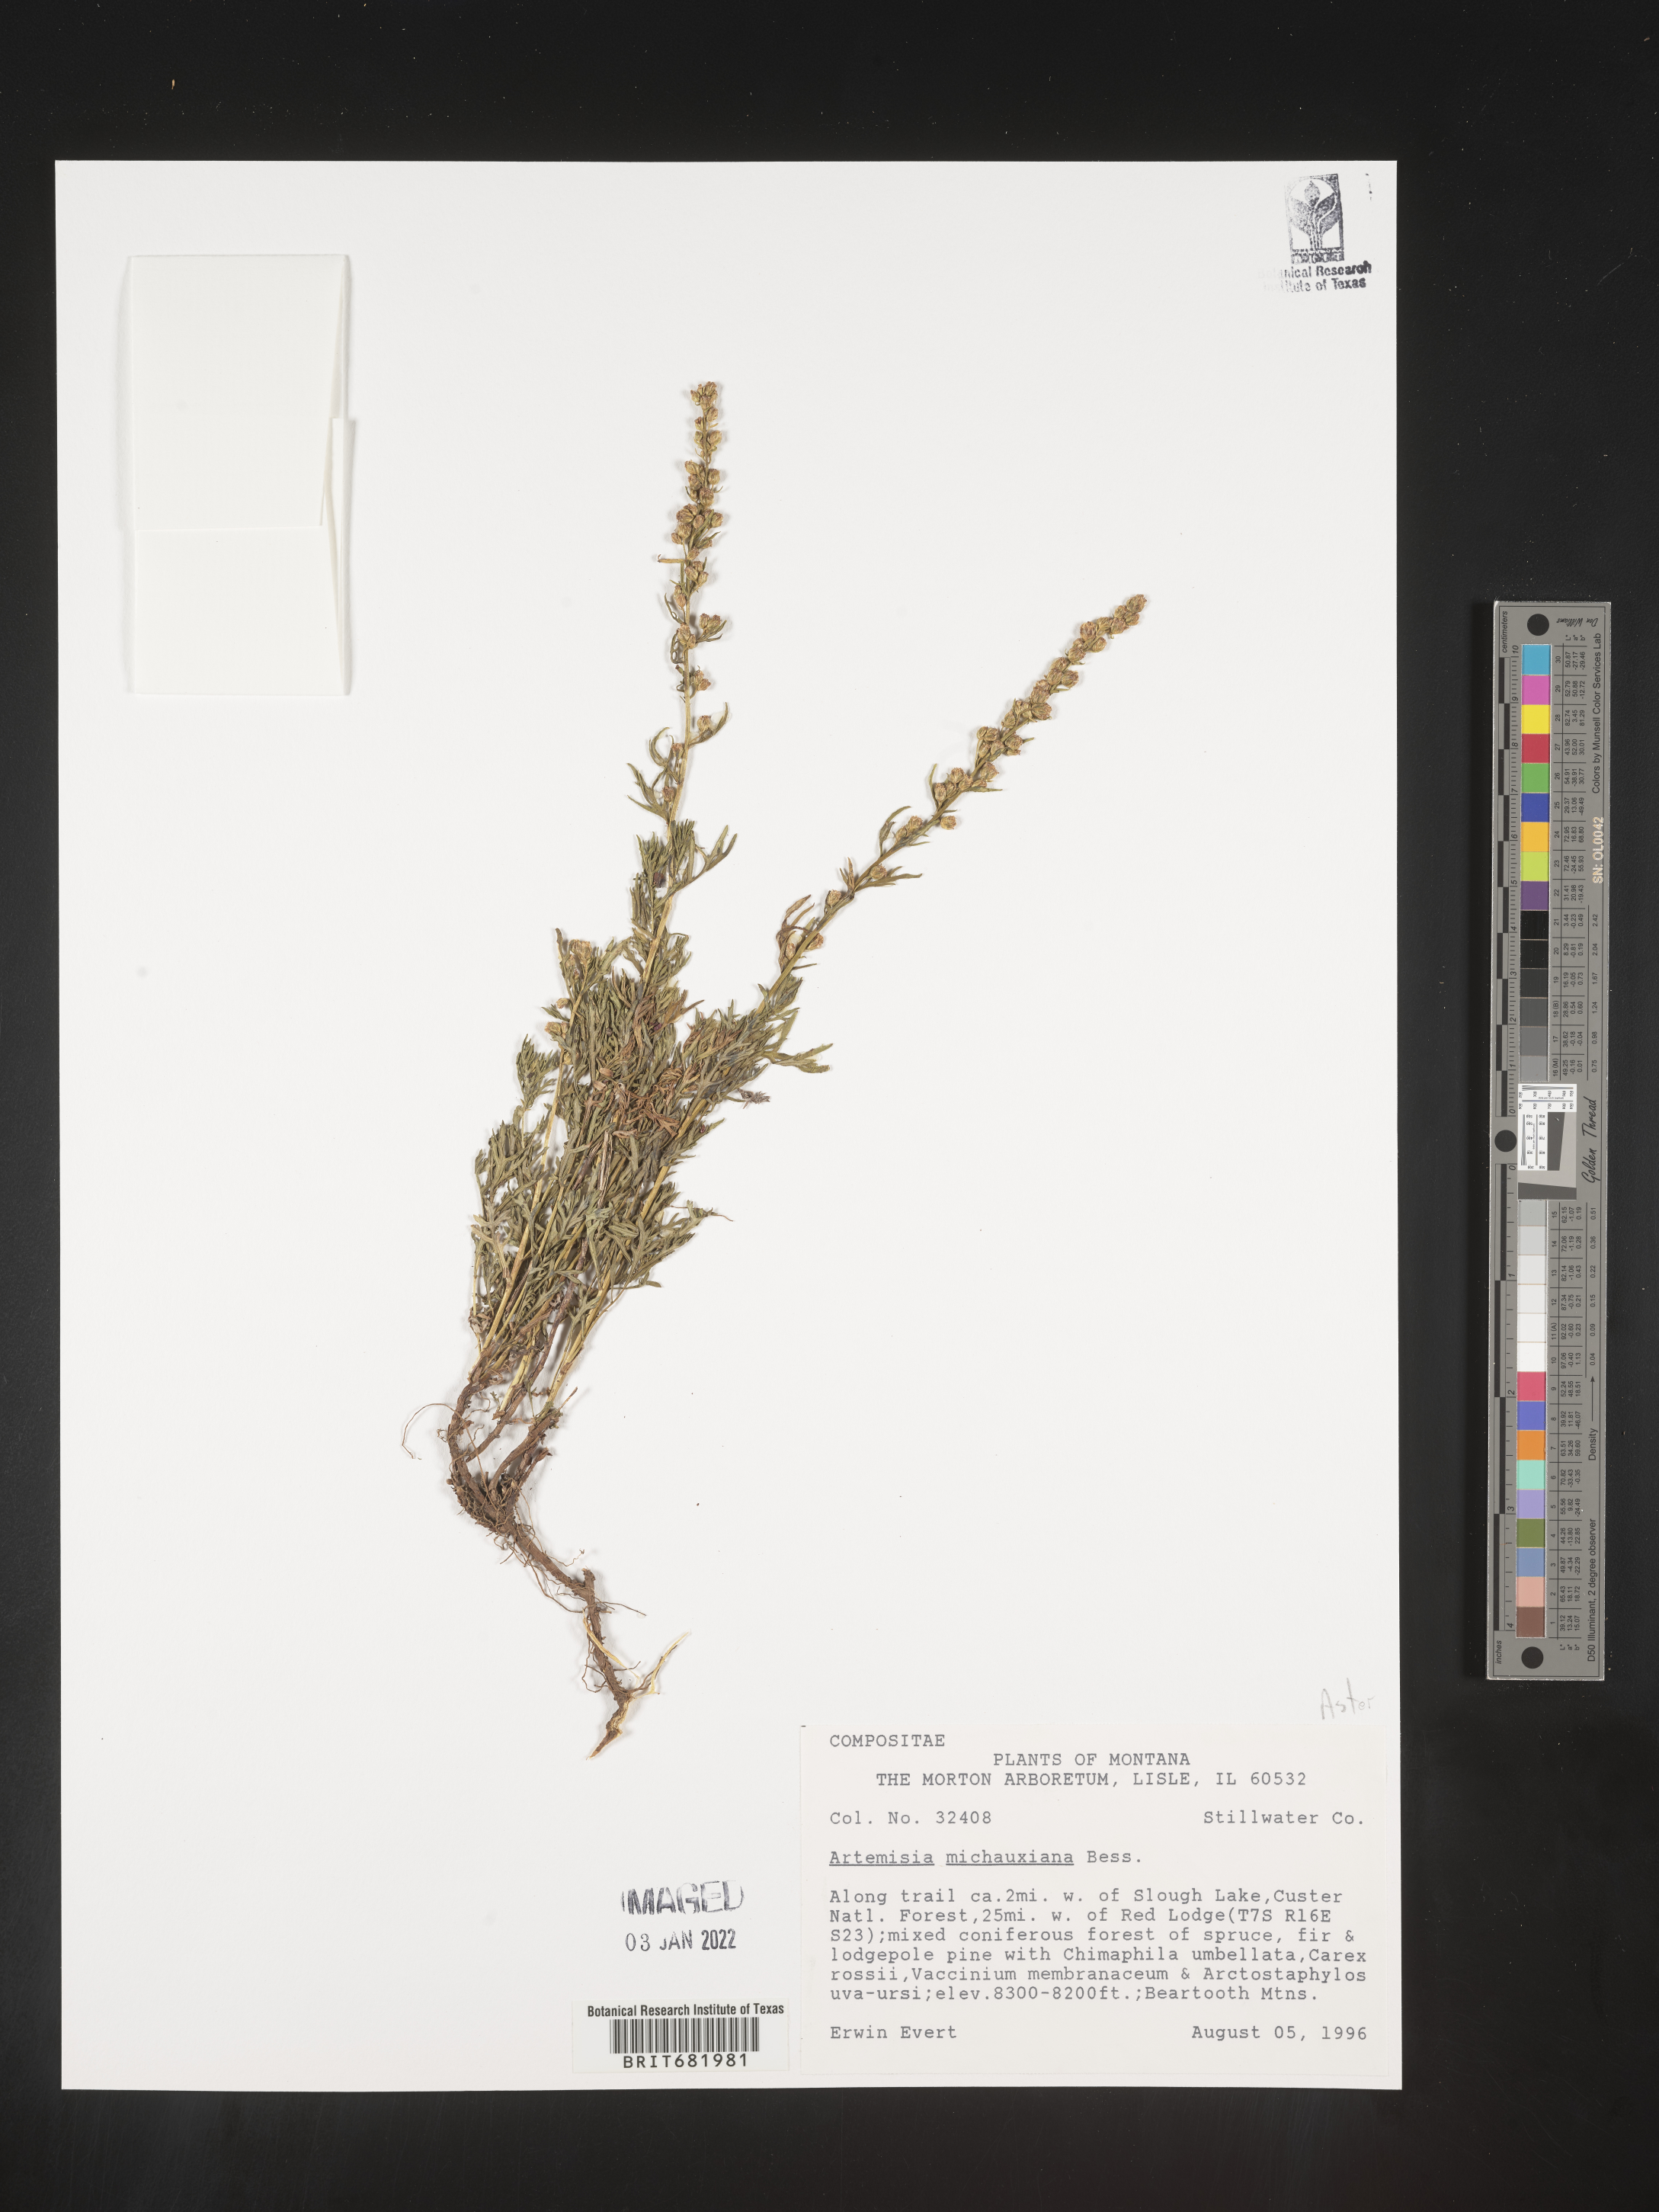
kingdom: Plantae
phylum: Tracheophyta
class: Magnoliopsida
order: Asterales
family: Asteraceae
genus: Artemisia
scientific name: Artemisia michauxiana
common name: Lemon sagewort
